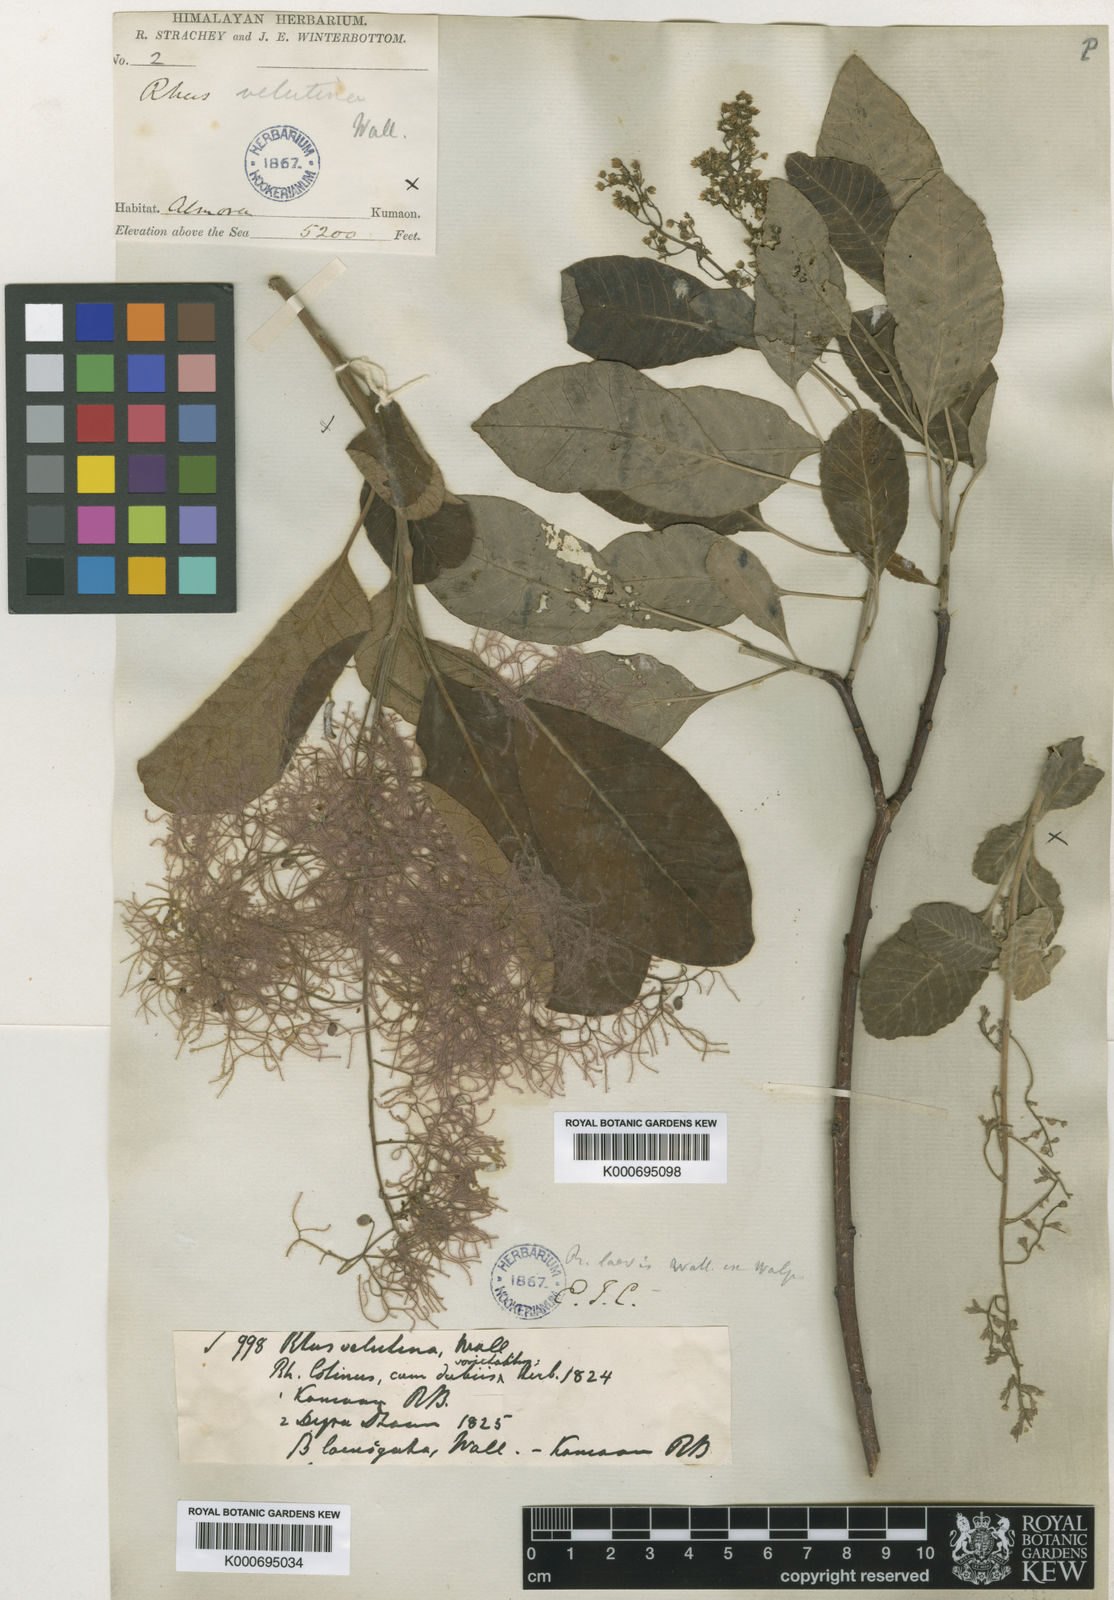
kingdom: Plantae
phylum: Tracheophyta
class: Magnoliopsida
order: Sapindales
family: Anacardiaceae
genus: Cotinus
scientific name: Cotinus coggygria
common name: Smoke-tree
